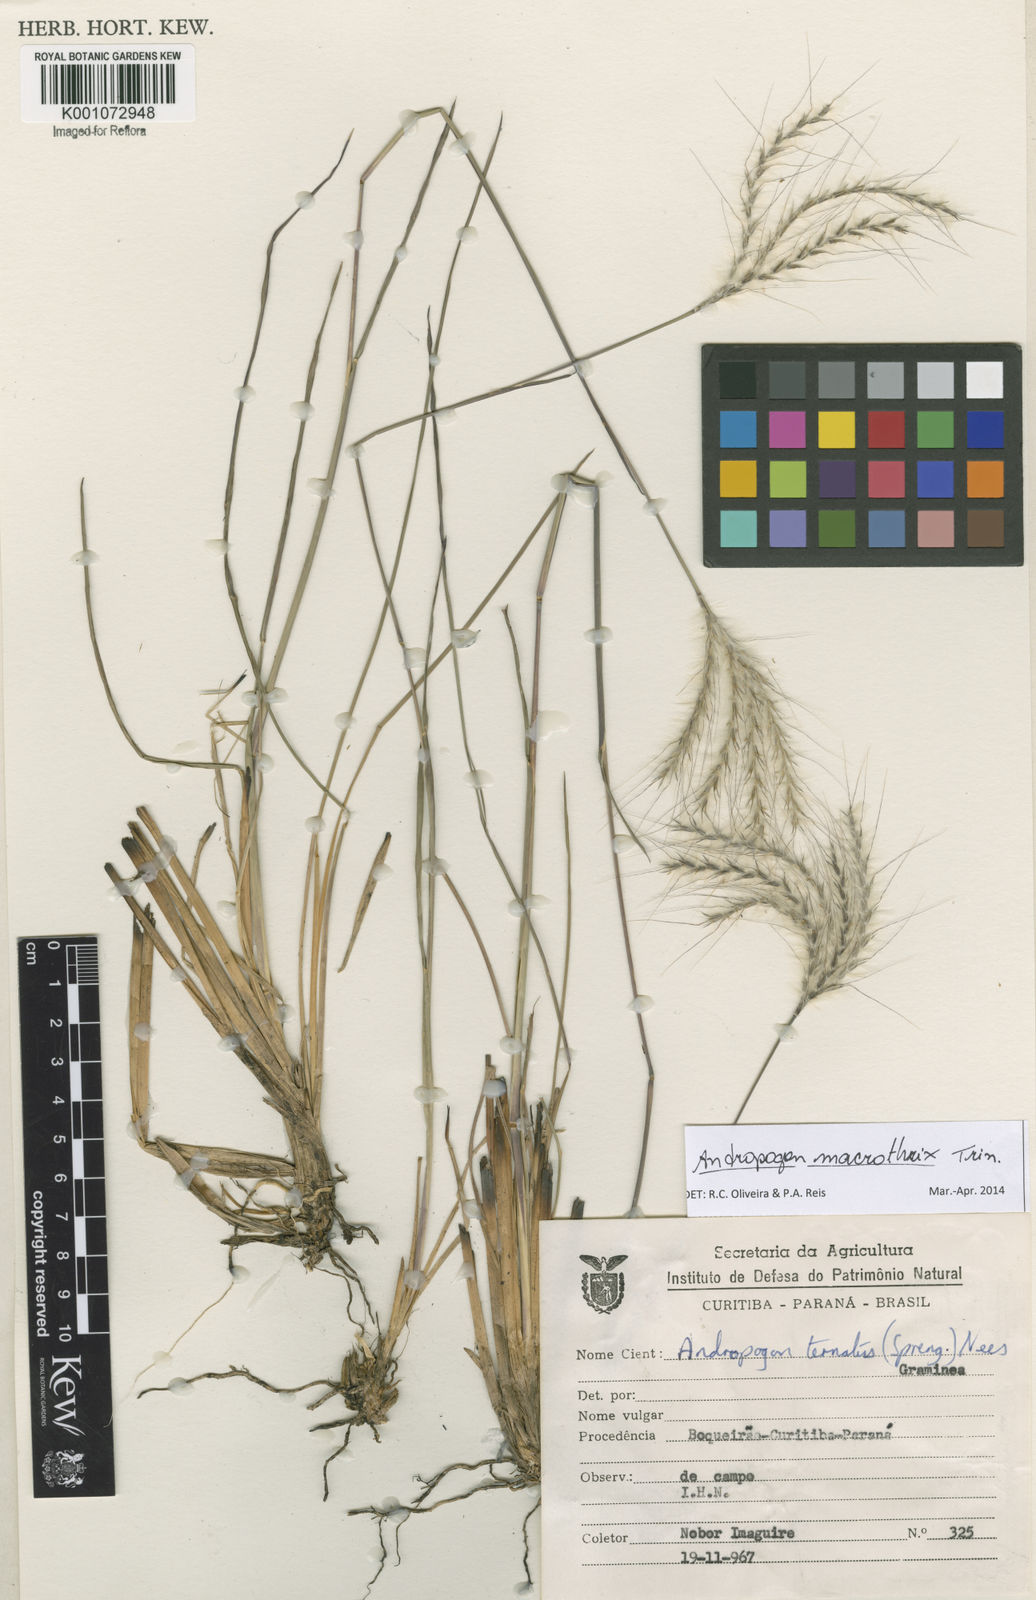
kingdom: Plantae
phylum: Tracheophyta
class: Liliopsida
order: Poales
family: Poaceae
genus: Andropogon
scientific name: Andropogon macrothrix
